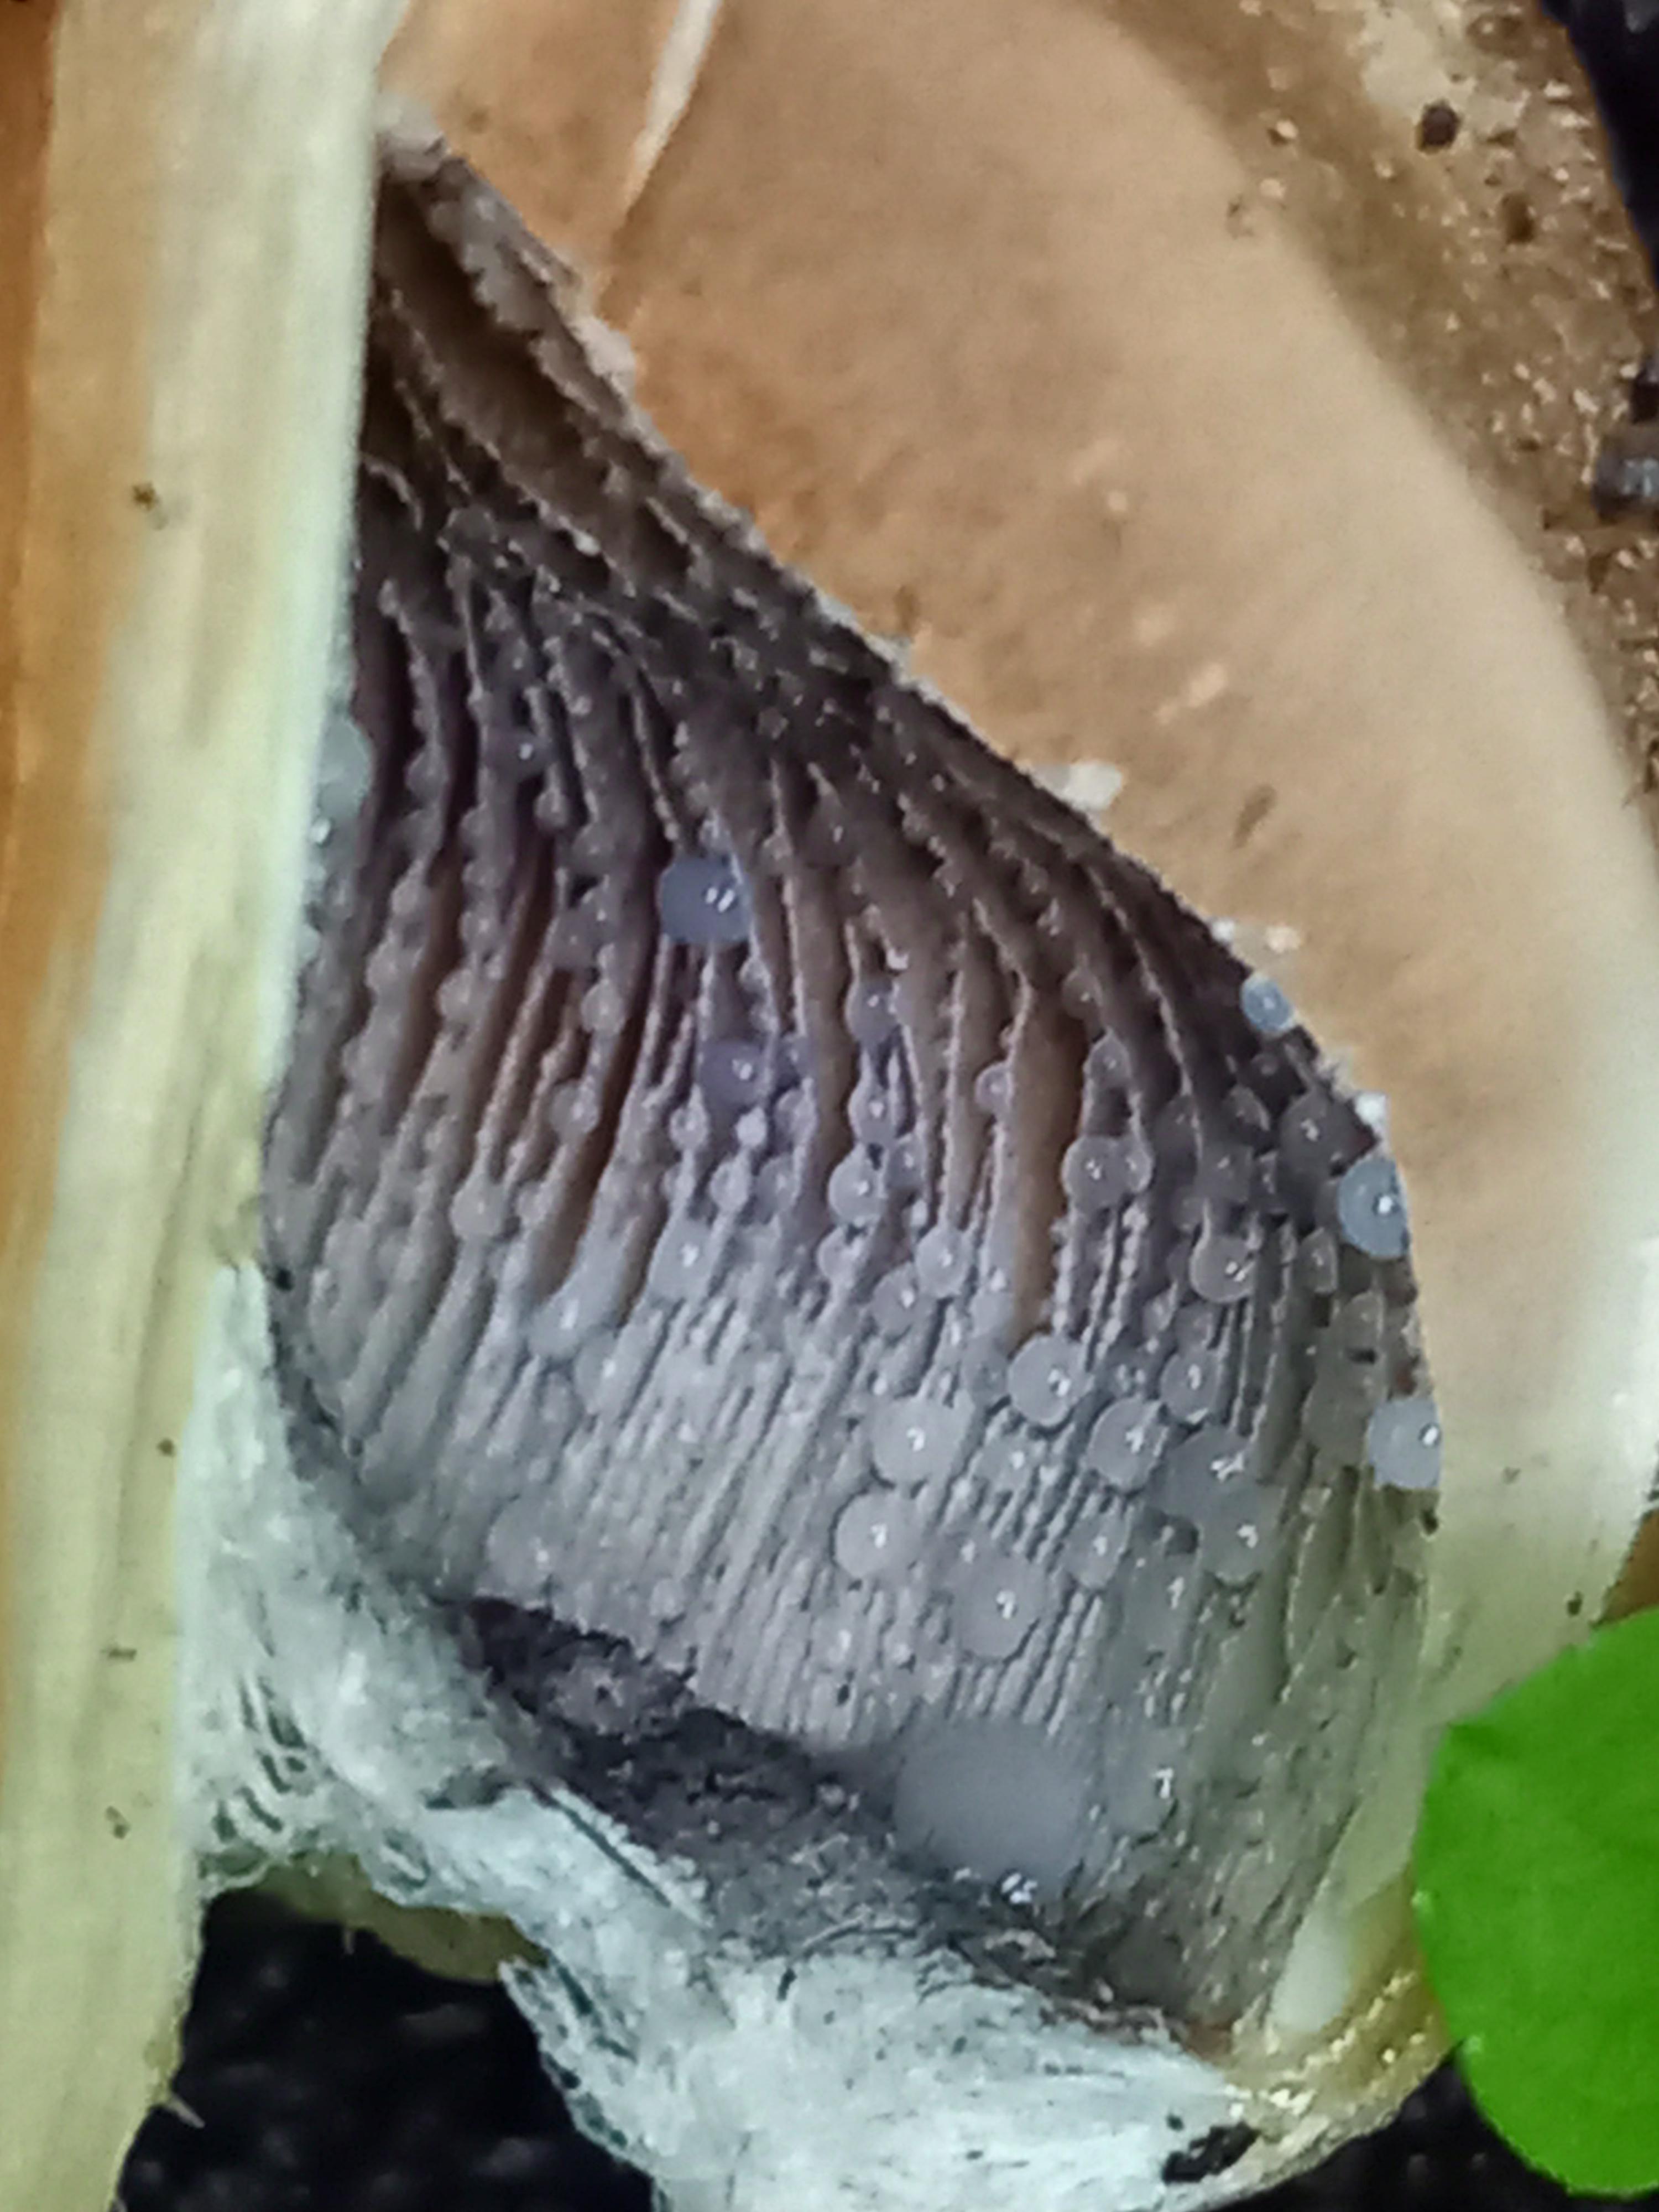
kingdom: Fungi
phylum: Basidiomycota
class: Agaricomycetes
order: Agaricales
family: Psathyrellaceae
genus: Lacrymaria
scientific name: Lacrymaria lacrymabunda
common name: grædende mørkhat
